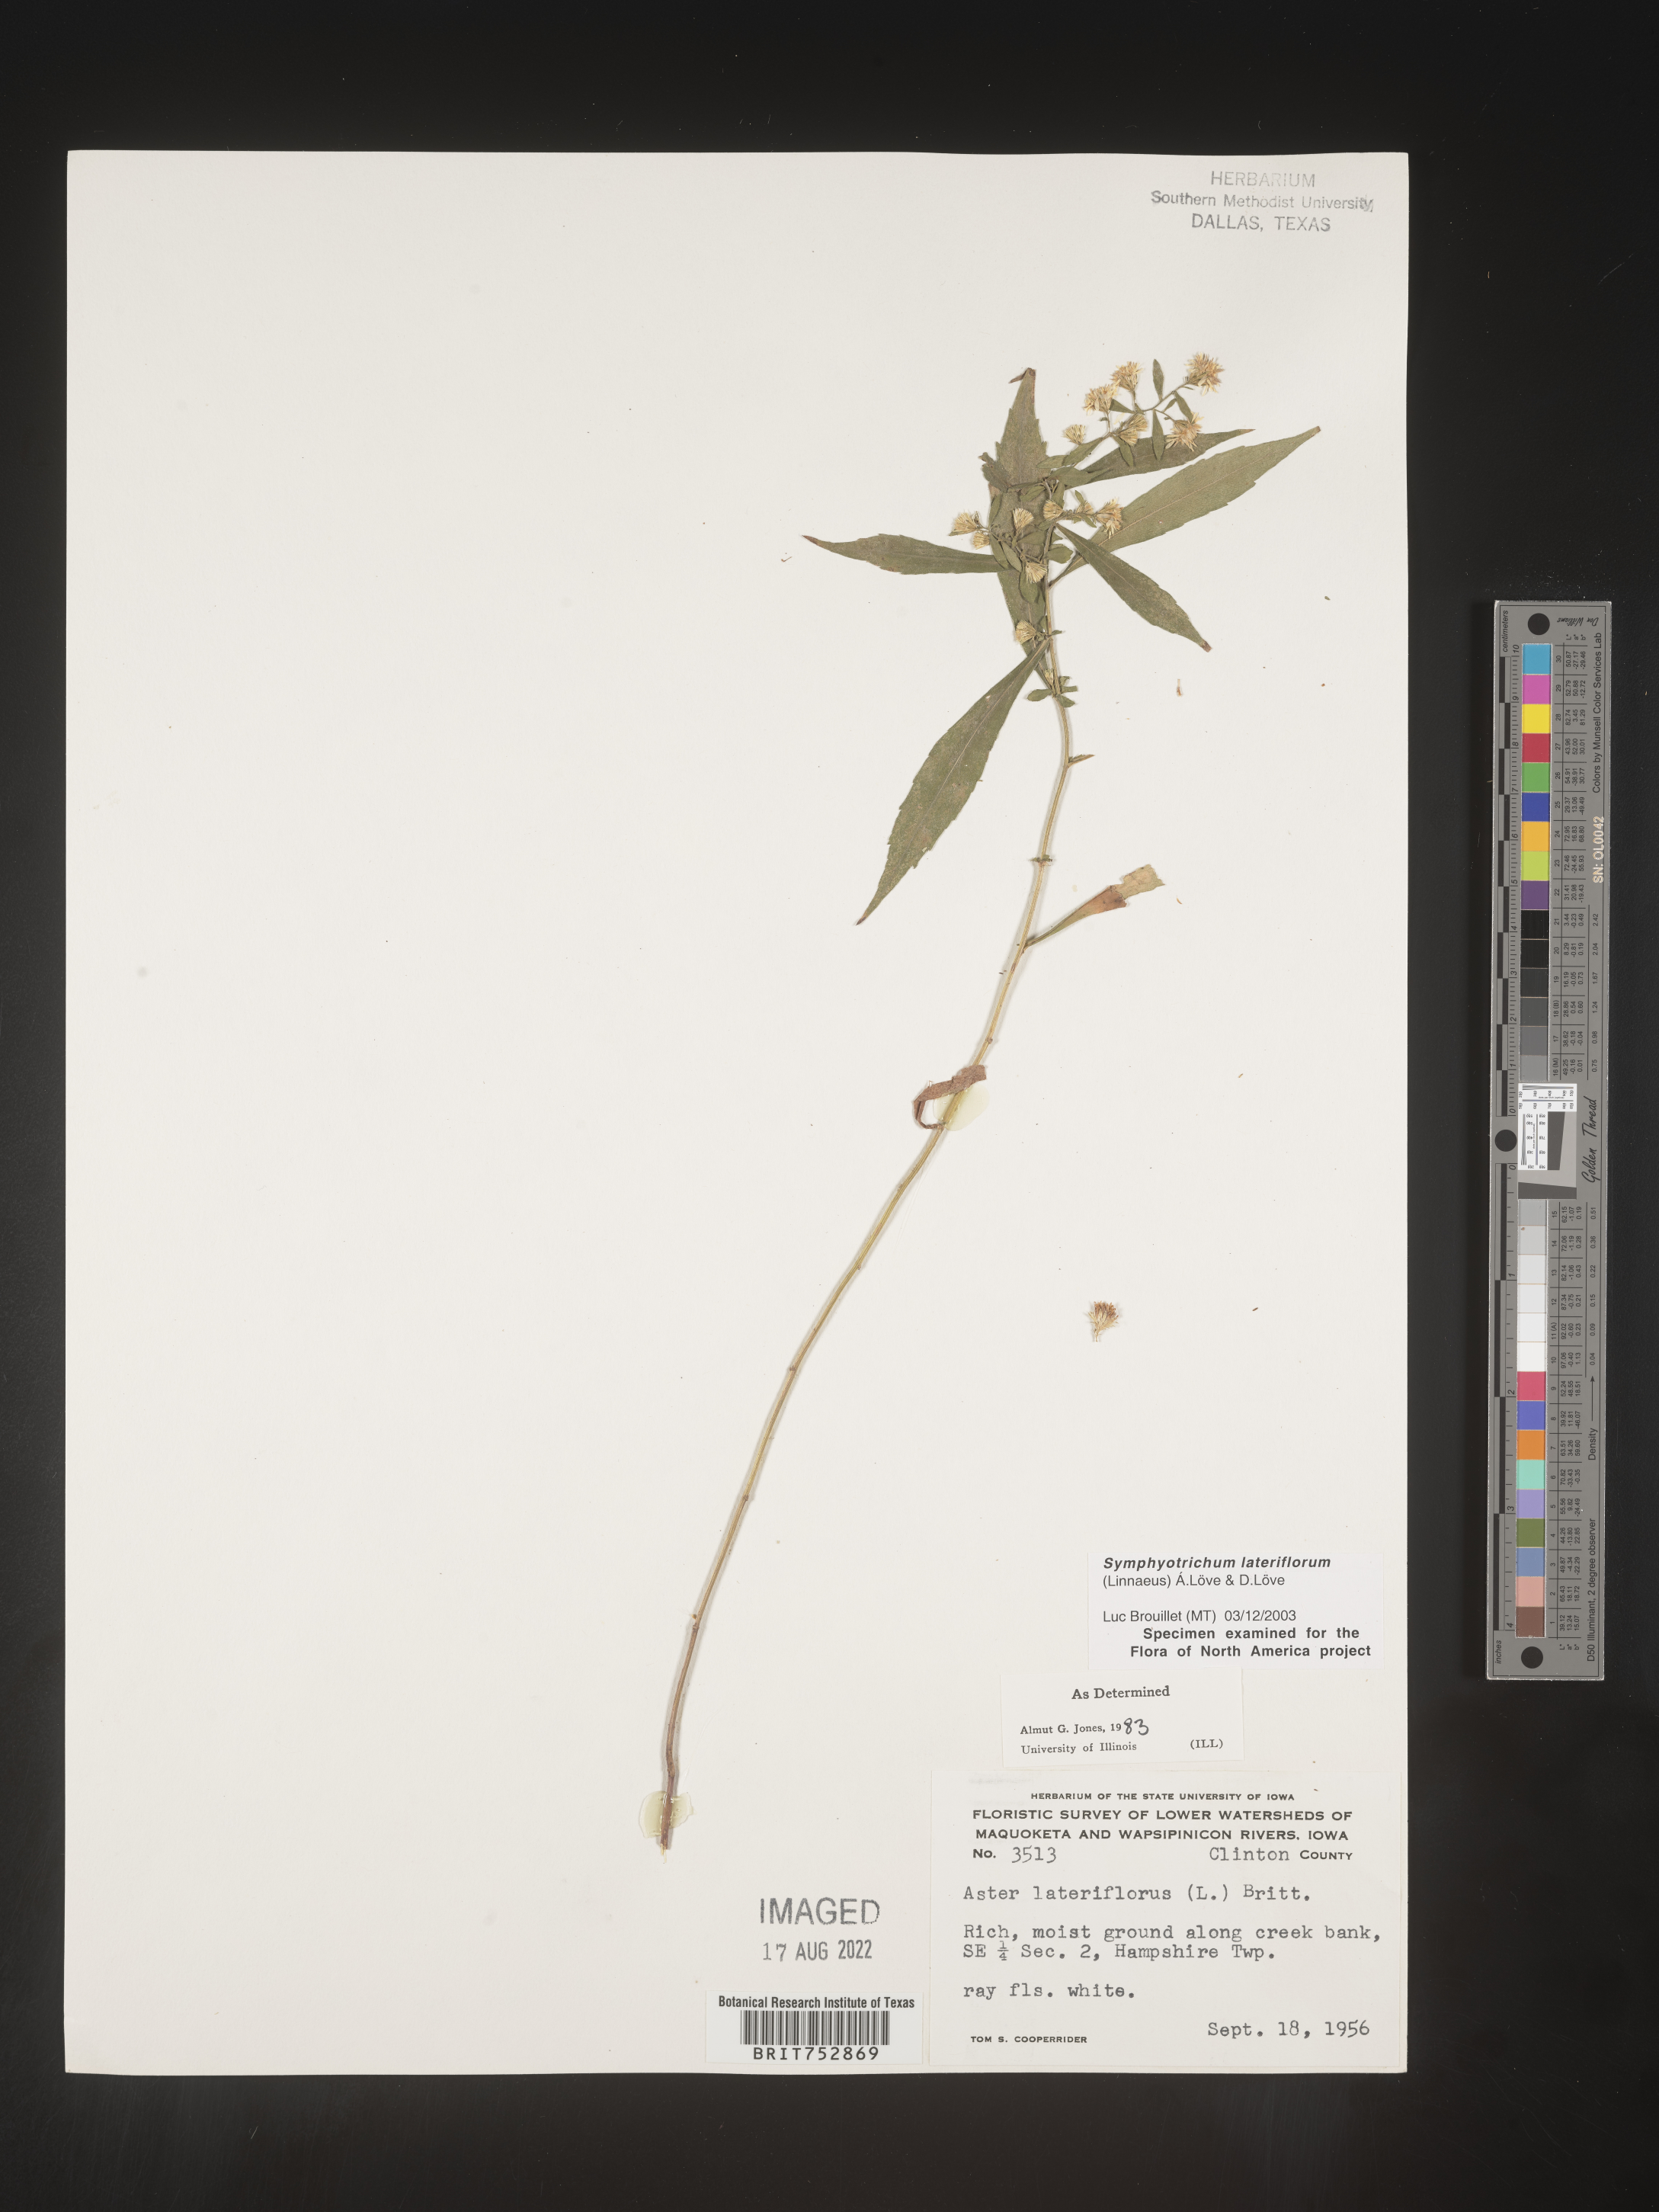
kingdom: Plantae
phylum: Tracheophyta
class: Magnoliopsida
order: Asterales
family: Asteraceae
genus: Symphyotrichum
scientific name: Symphyotrichum lateriflorum
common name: Calico aster
